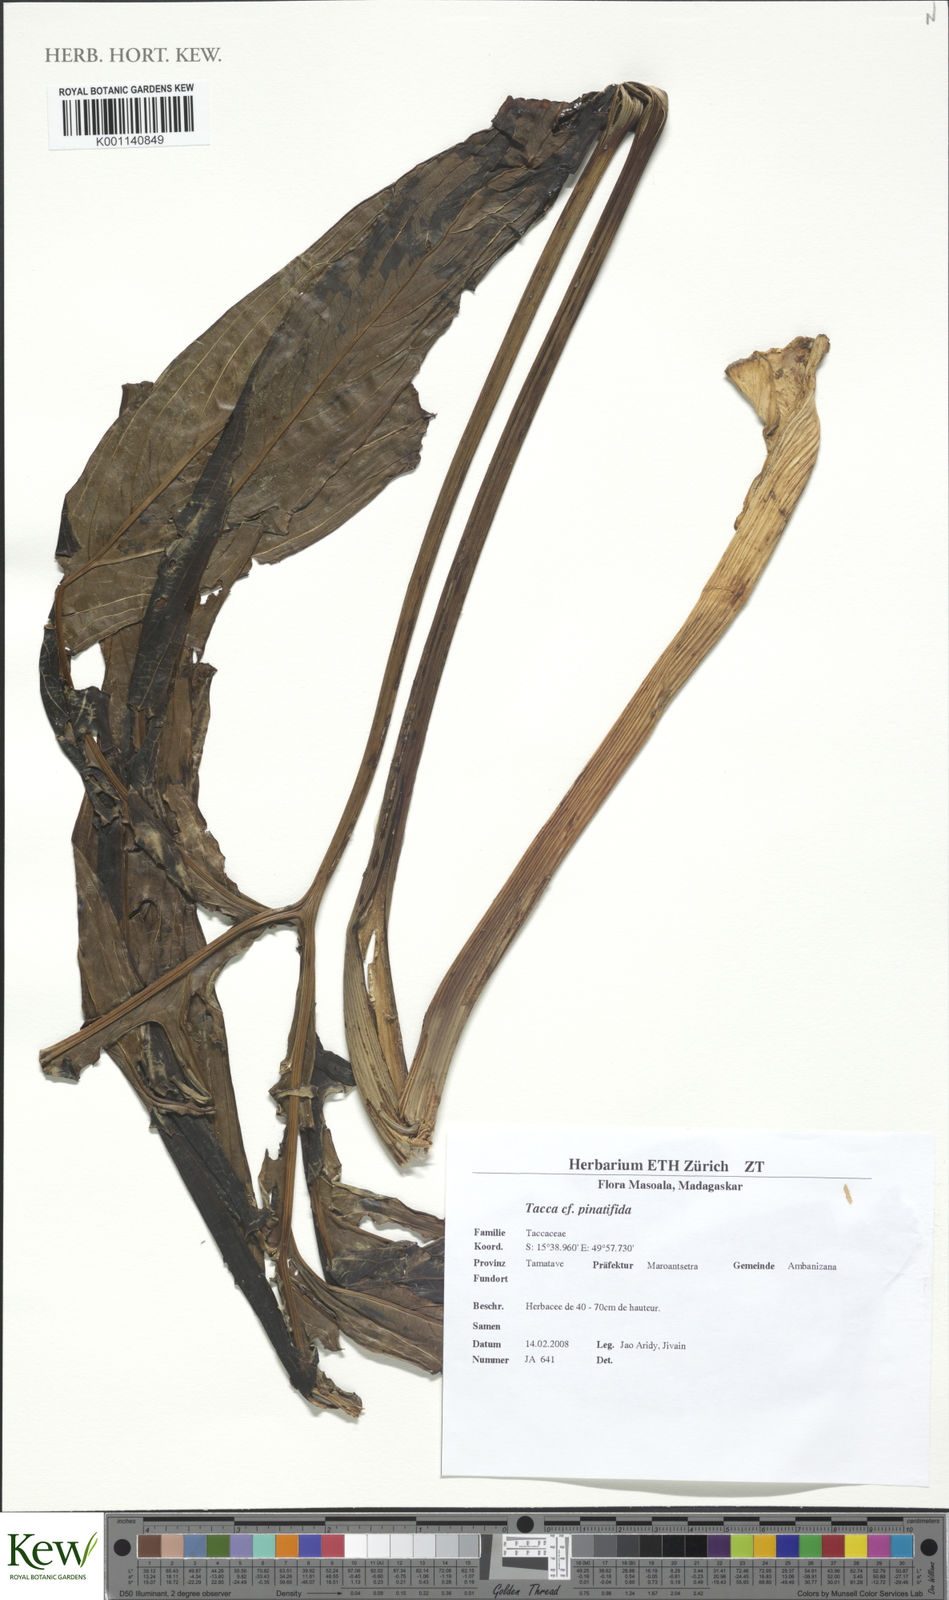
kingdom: Plantae
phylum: Tracheophyta
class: Liliopsida
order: Dioscoreales
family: Dioscoreaceae
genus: Tacca
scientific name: Tacca
